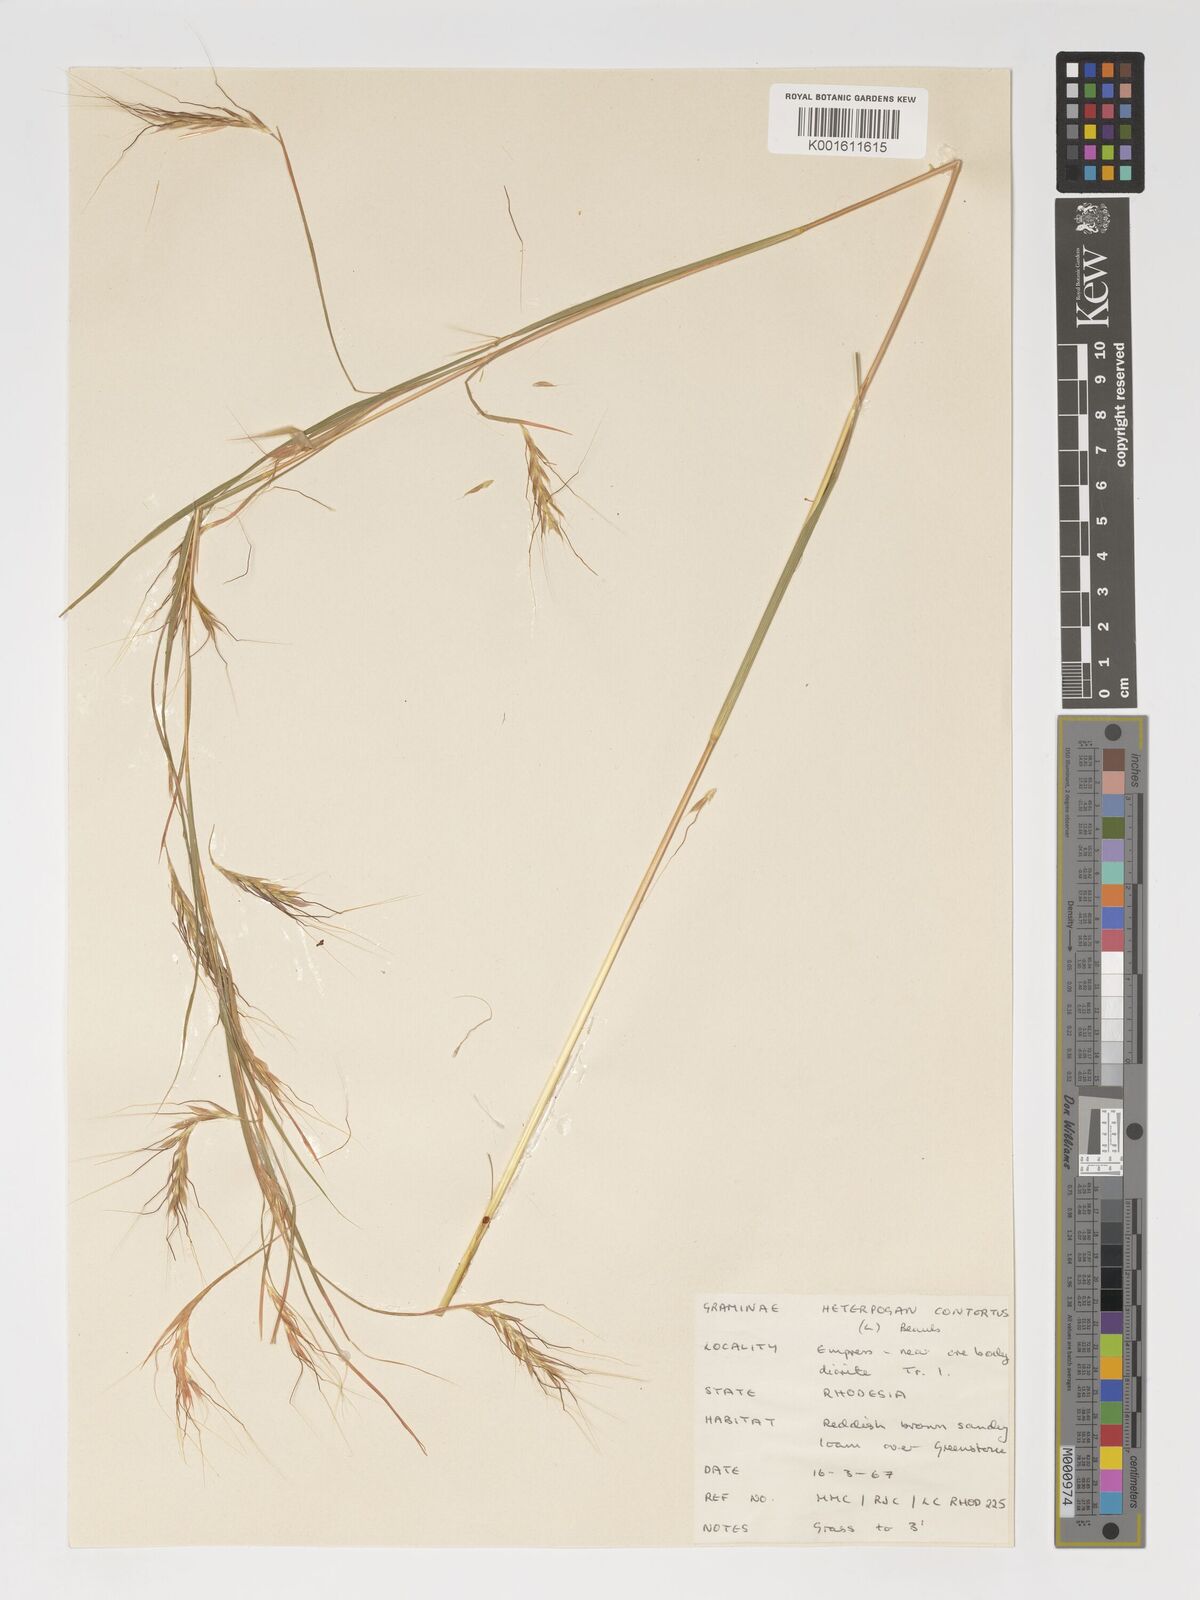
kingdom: Plantae
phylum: Tracheophyta
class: Liliopsida
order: Poales
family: Poaceae
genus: Heteropogon
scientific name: Heteropogon contortus
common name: Tanglehead
